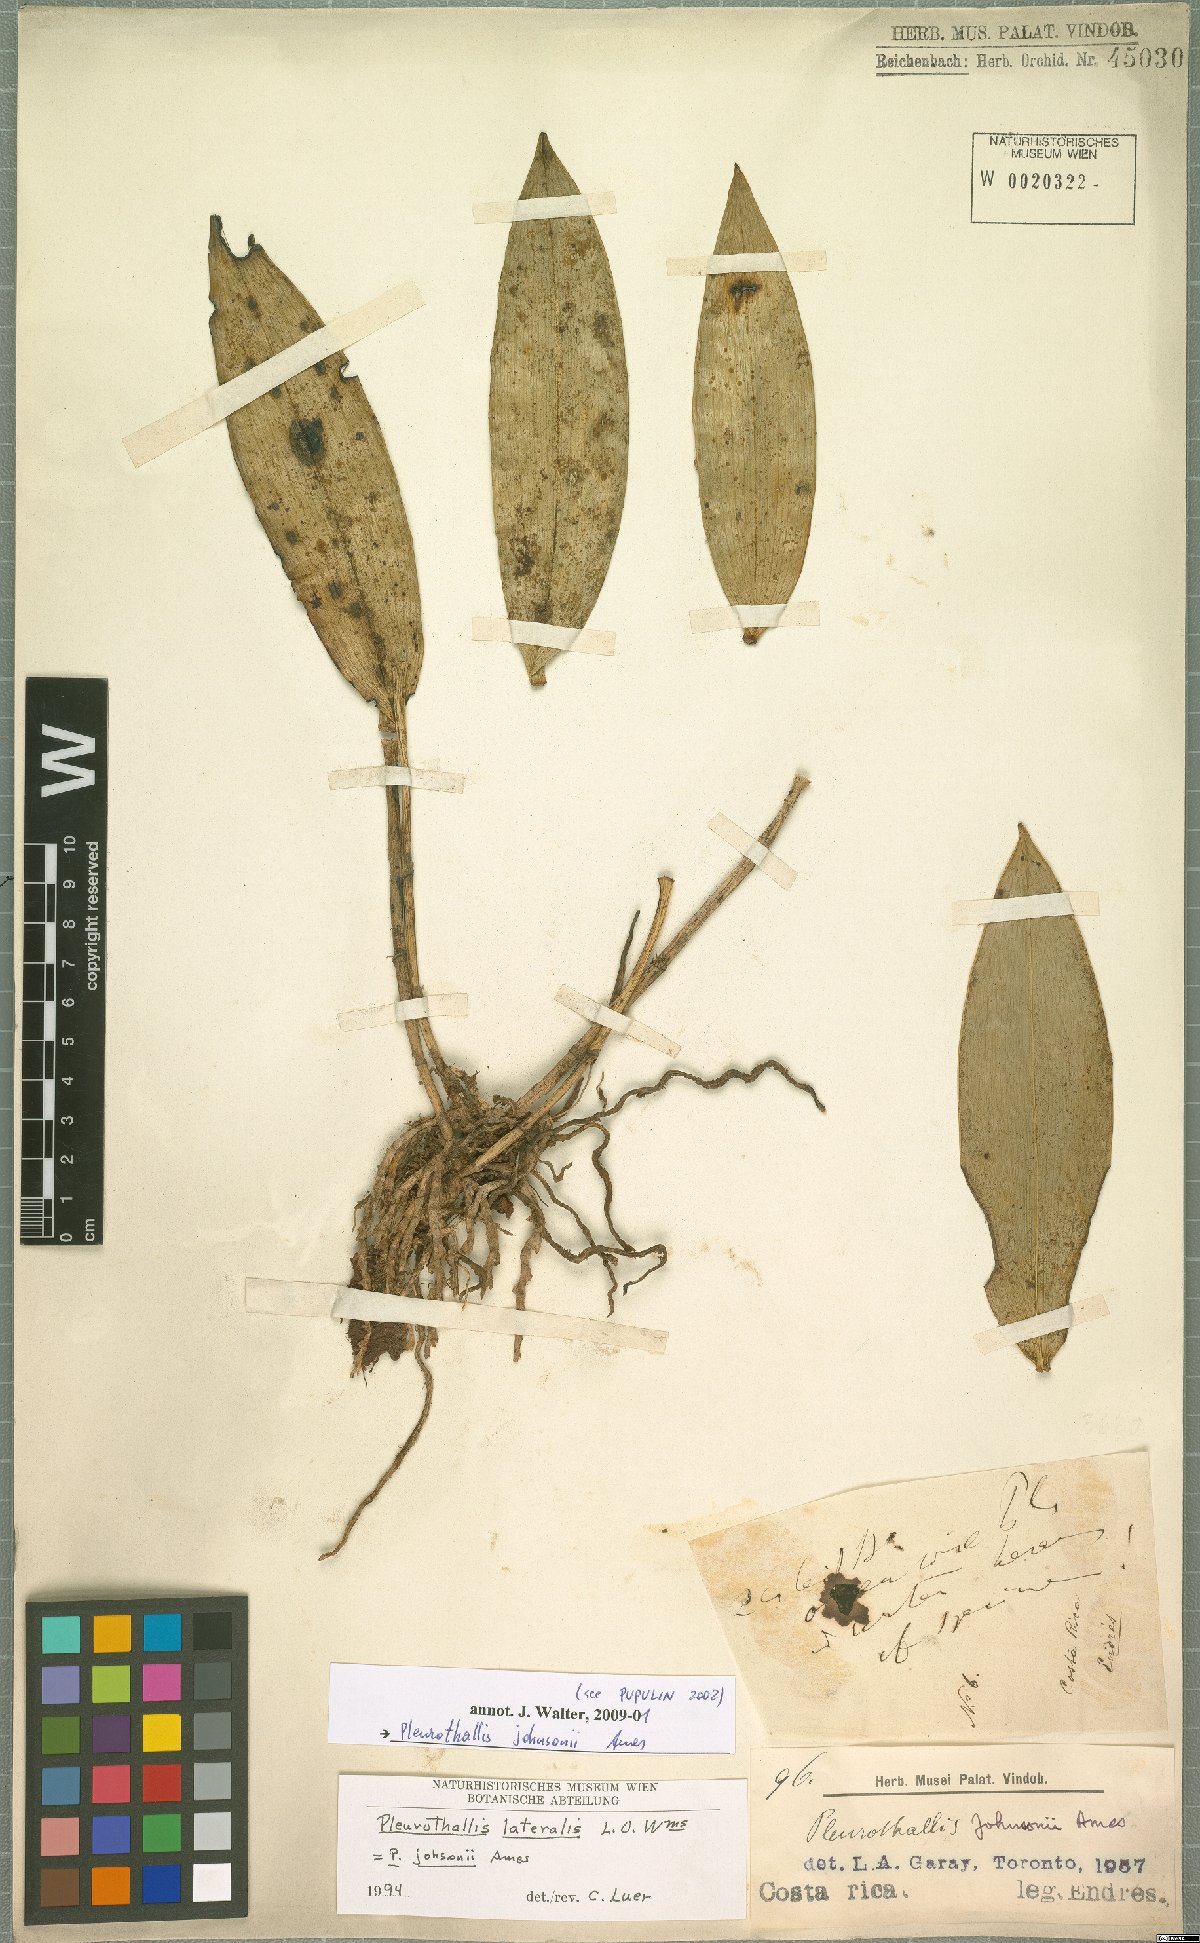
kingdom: Plantae
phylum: Tracheophyta
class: Liliopsida
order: Asparagales
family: Orchidaceae
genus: Acianthera
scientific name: Acianthera johnsonii
